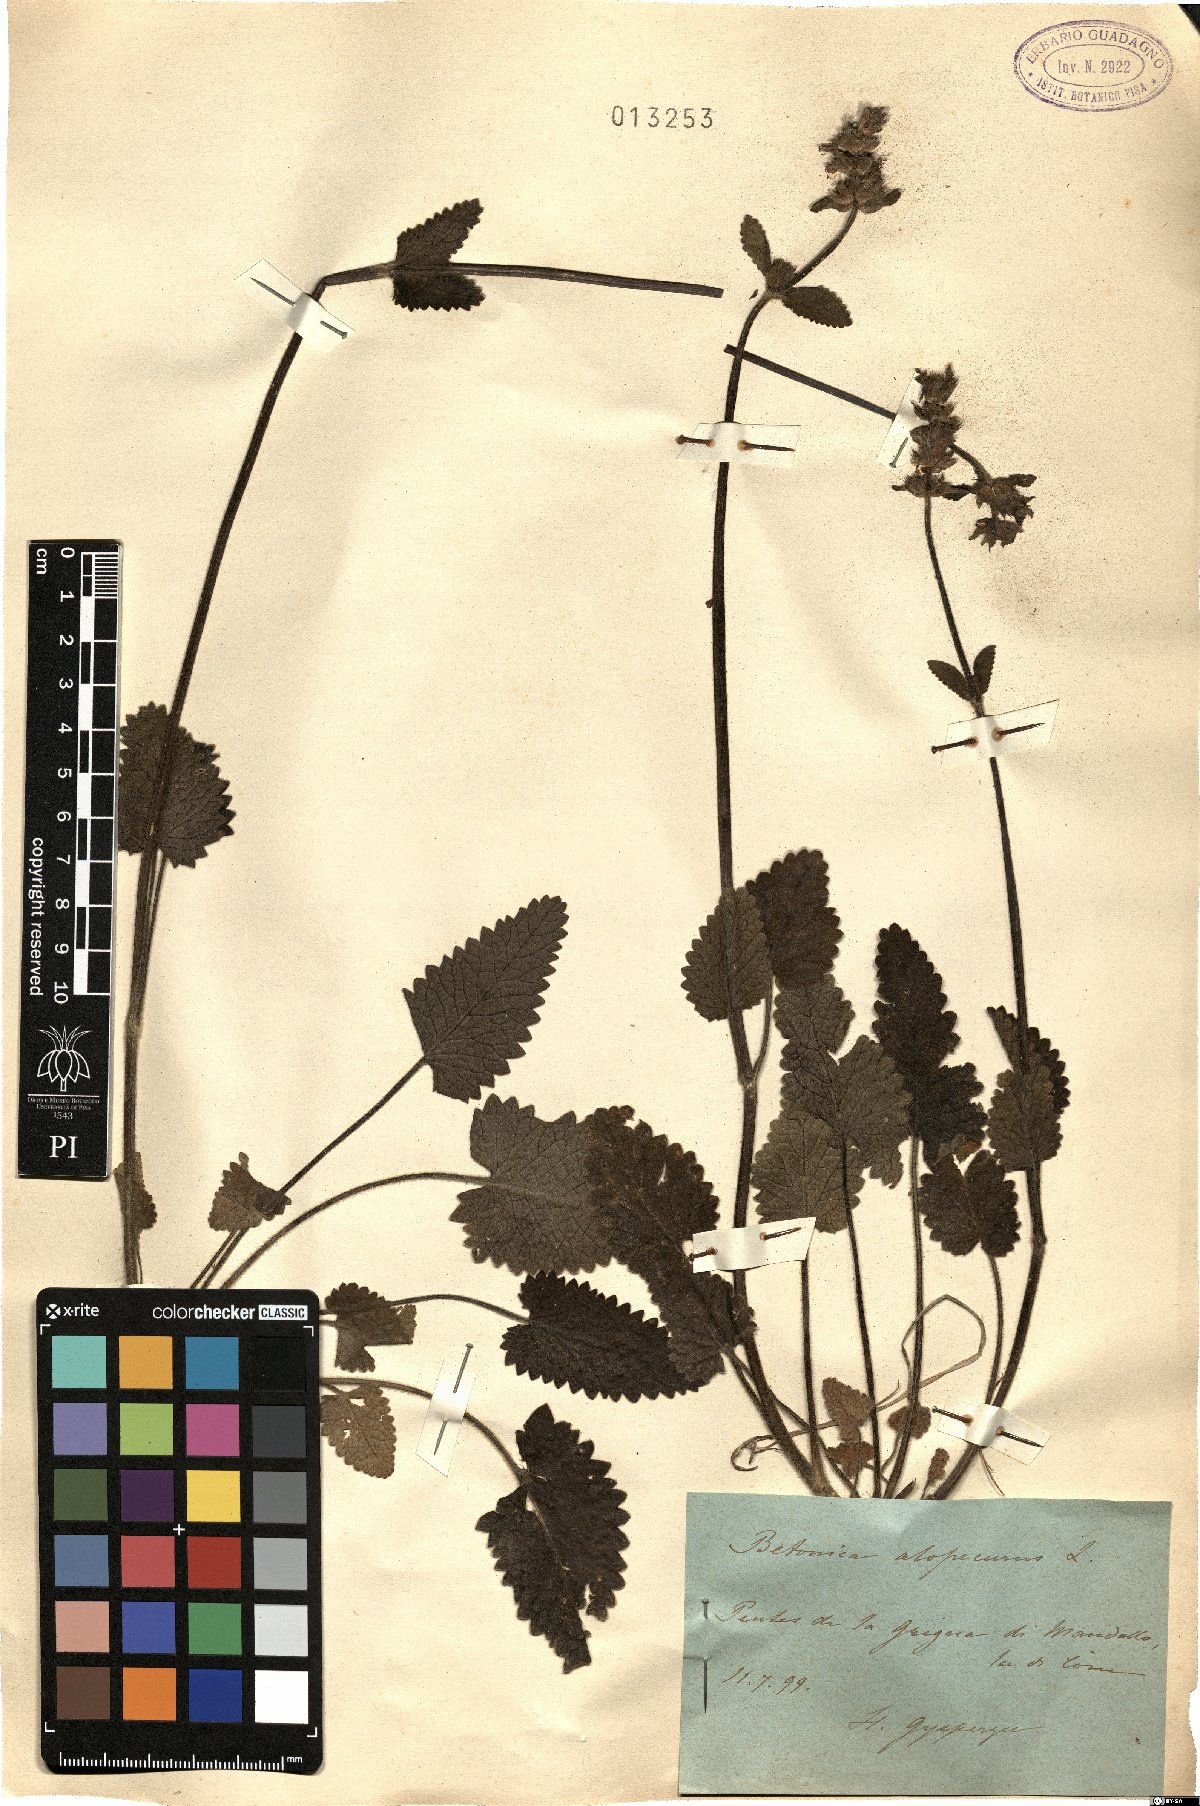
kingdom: Plantae
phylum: Tracheophyta
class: Magnoliopsida
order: Lamiales
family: Lamiaceae
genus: Betonica
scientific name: Betonica alopecuros
